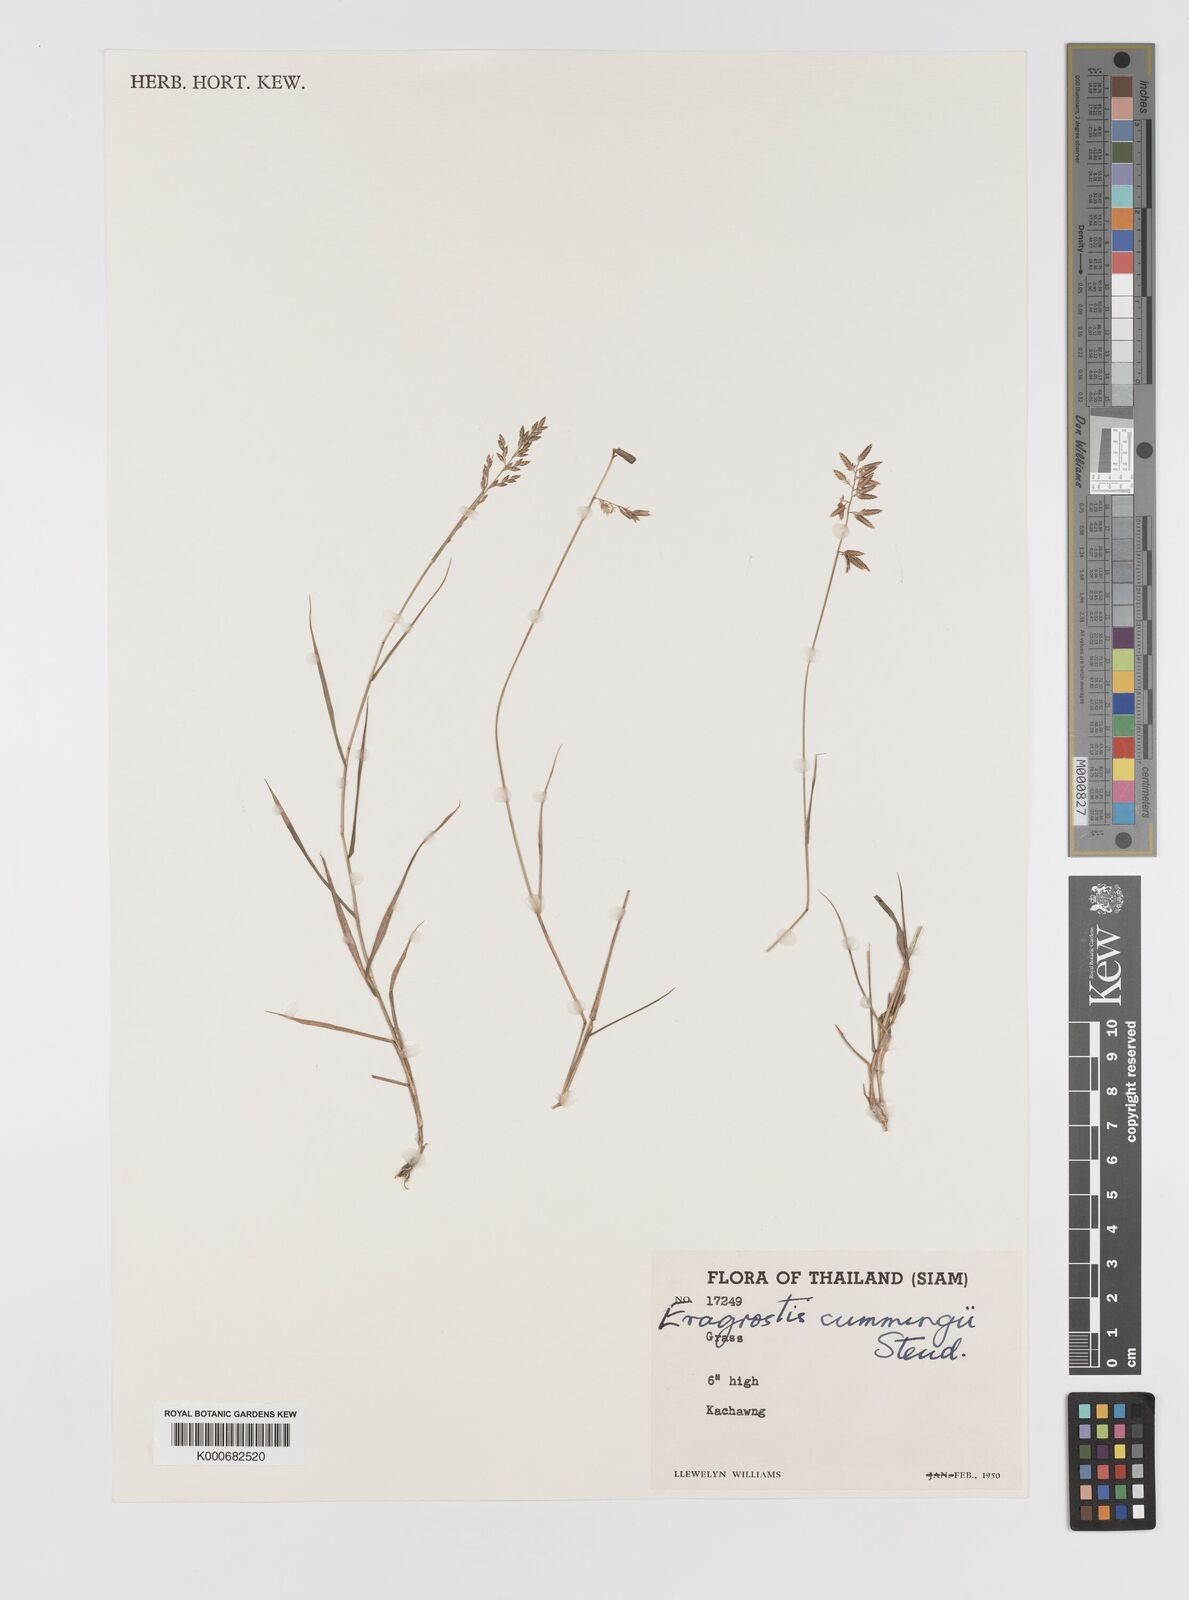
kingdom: Plantae
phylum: Tracheophyta
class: Liliopsida
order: Poales
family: Poaceae
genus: Eragrostis
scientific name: Eragrostis subsecunda
